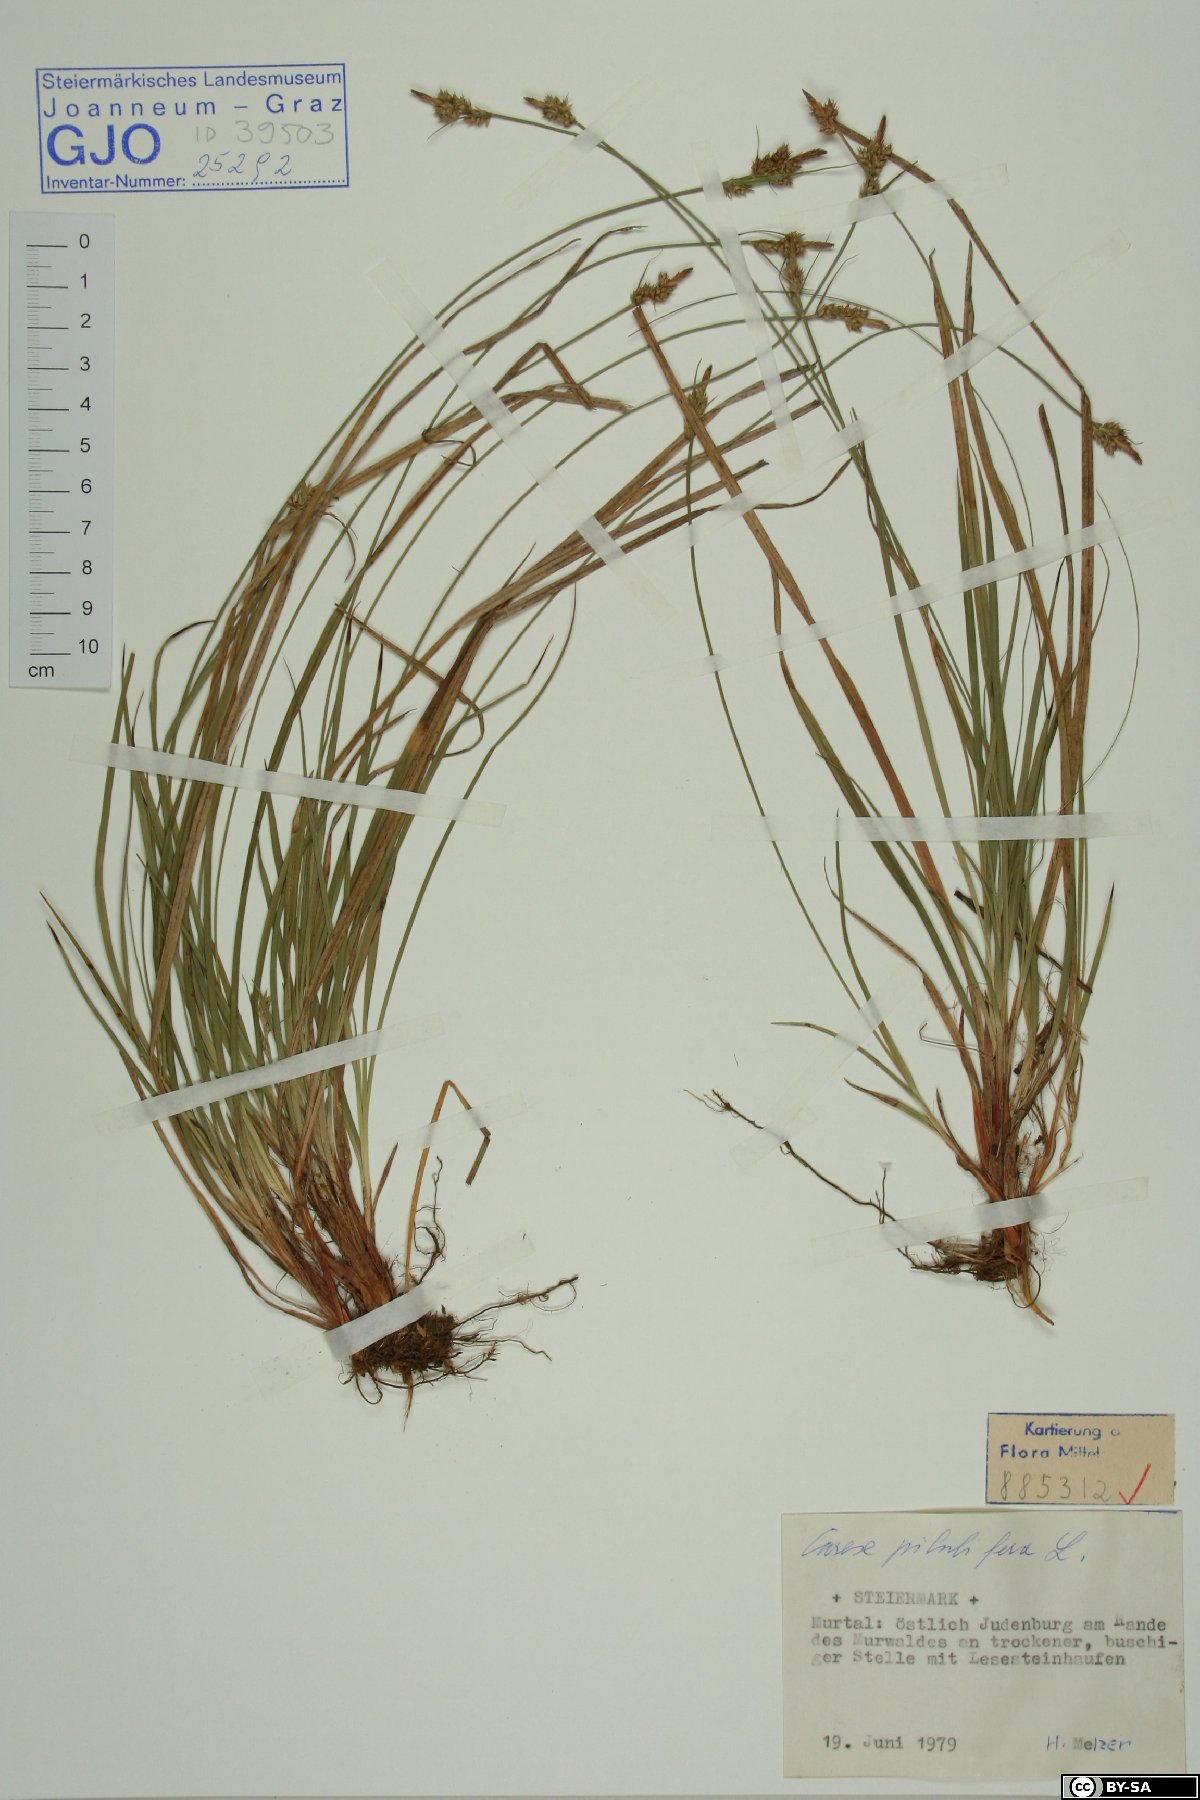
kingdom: Plantae
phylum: Tracheophyta
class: Liliopsida
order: Poales
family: Cyperaceae
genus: Carex
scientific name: Carex pilulifera
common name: Pill sedge
